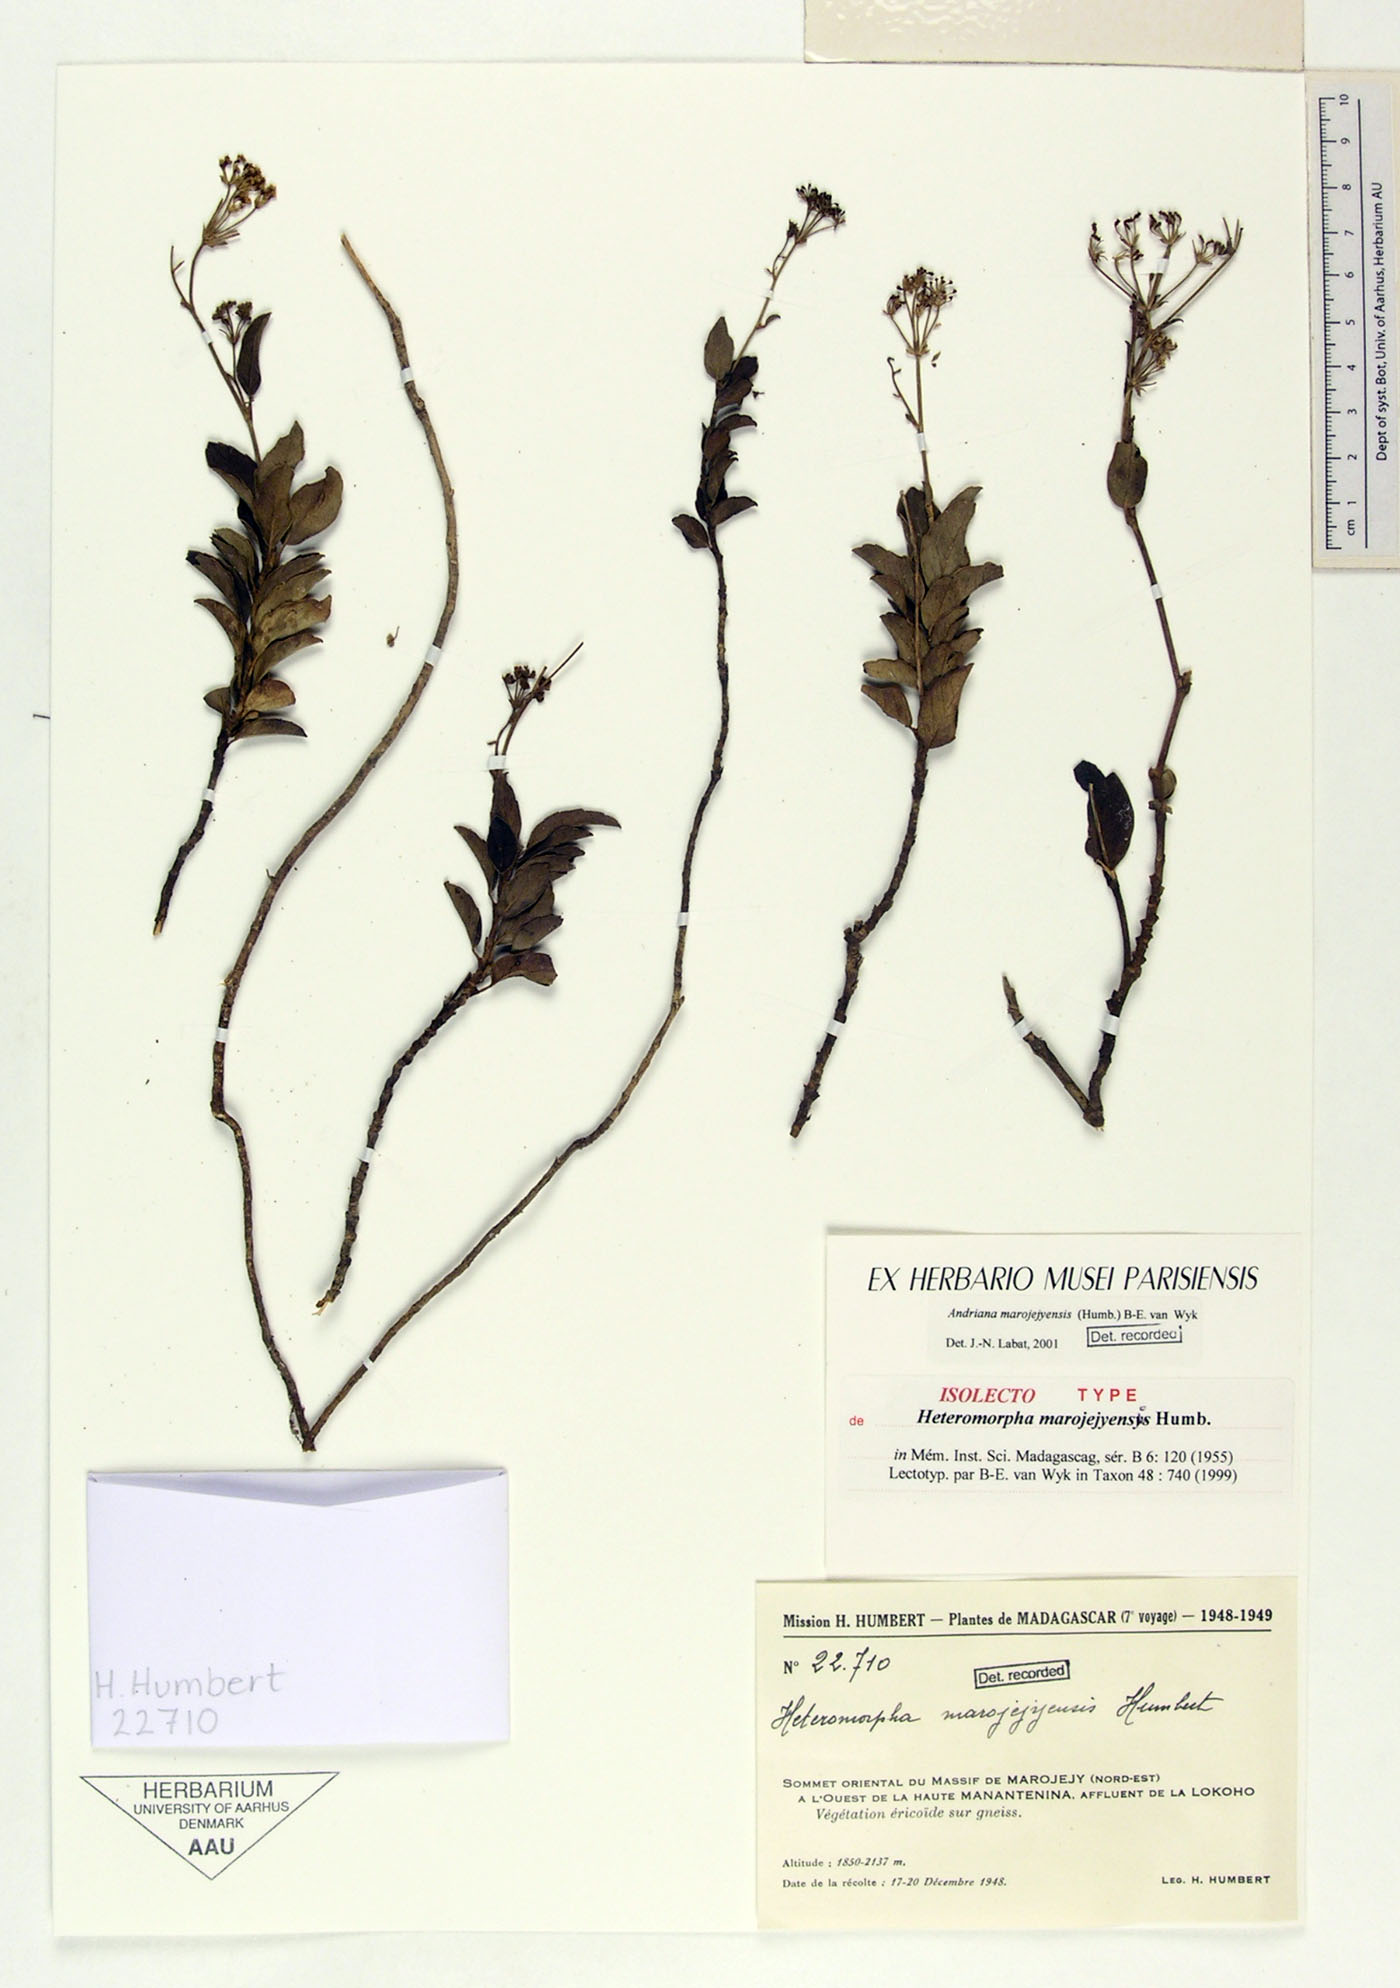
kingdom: Plantae
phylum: Tracheophyta
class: Magnoliopsida
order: Apiales
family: Apiaceae
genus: Andriana
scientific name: Andriana marojejyensis
